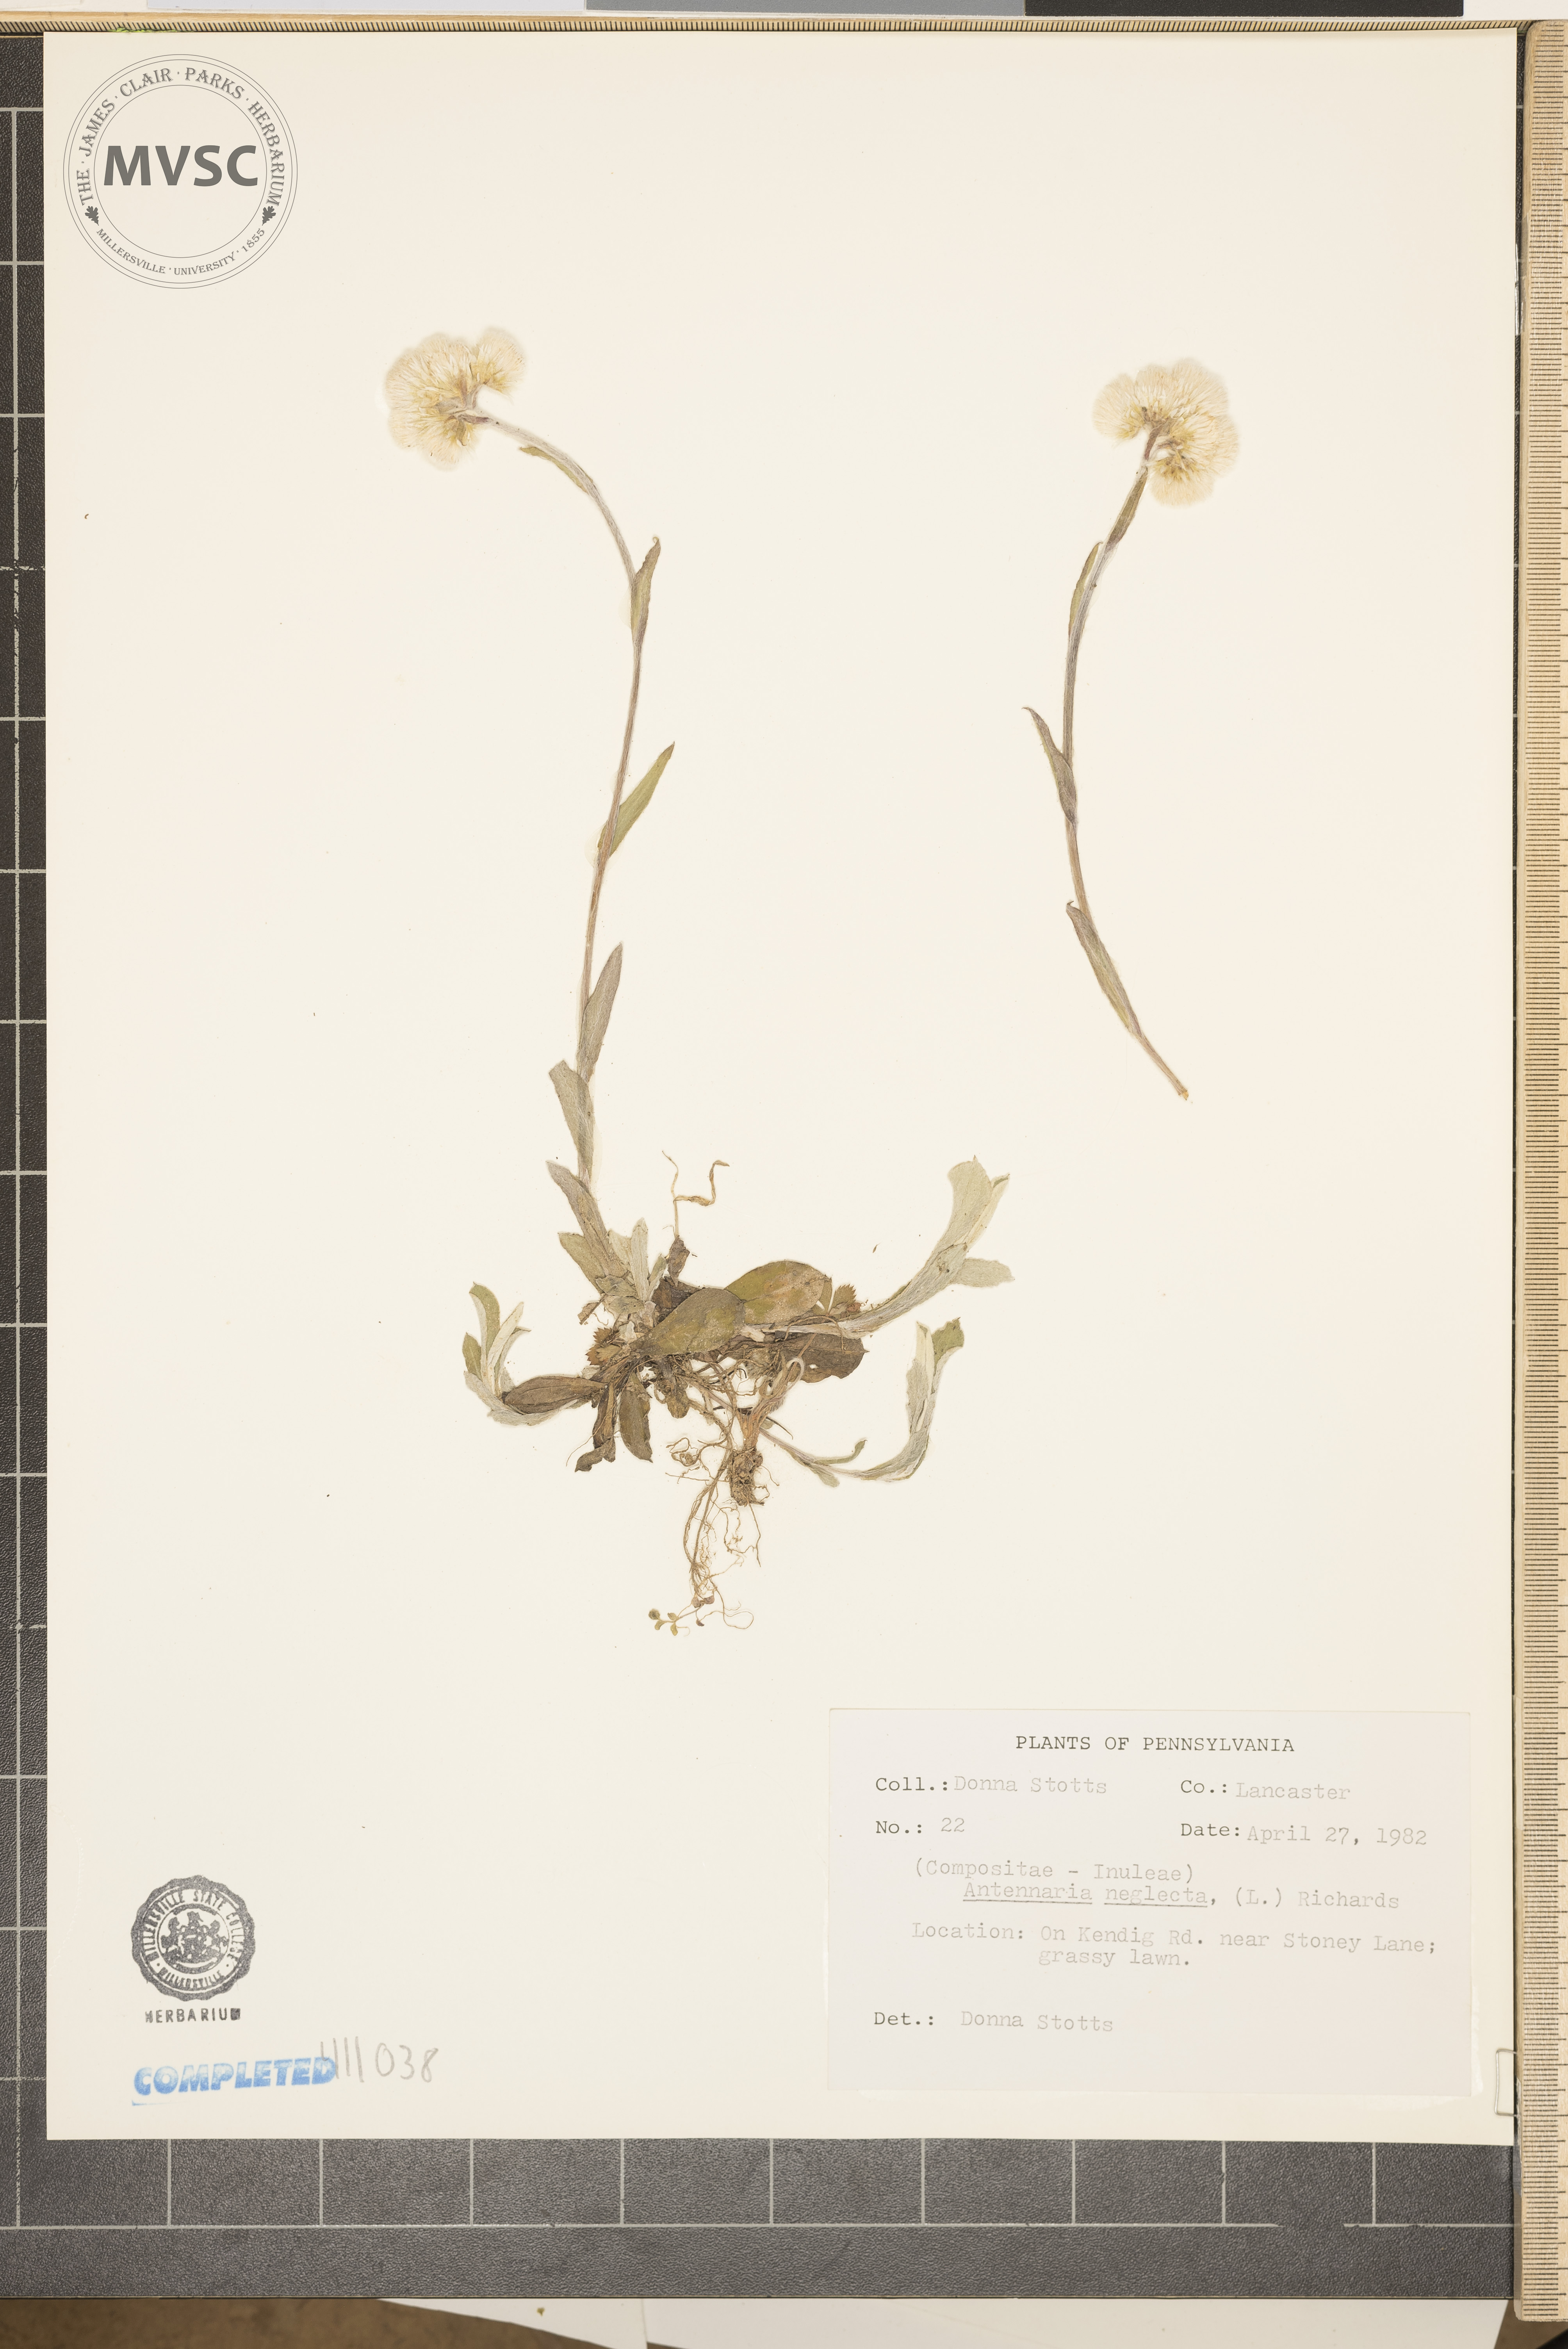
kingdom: Plantae
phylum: Tracheophyta
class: Magnoliopsida
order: Asterales
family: Asteraceae
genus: Antennaria
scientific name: Antennaria neglecta
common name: Field pussytoes
